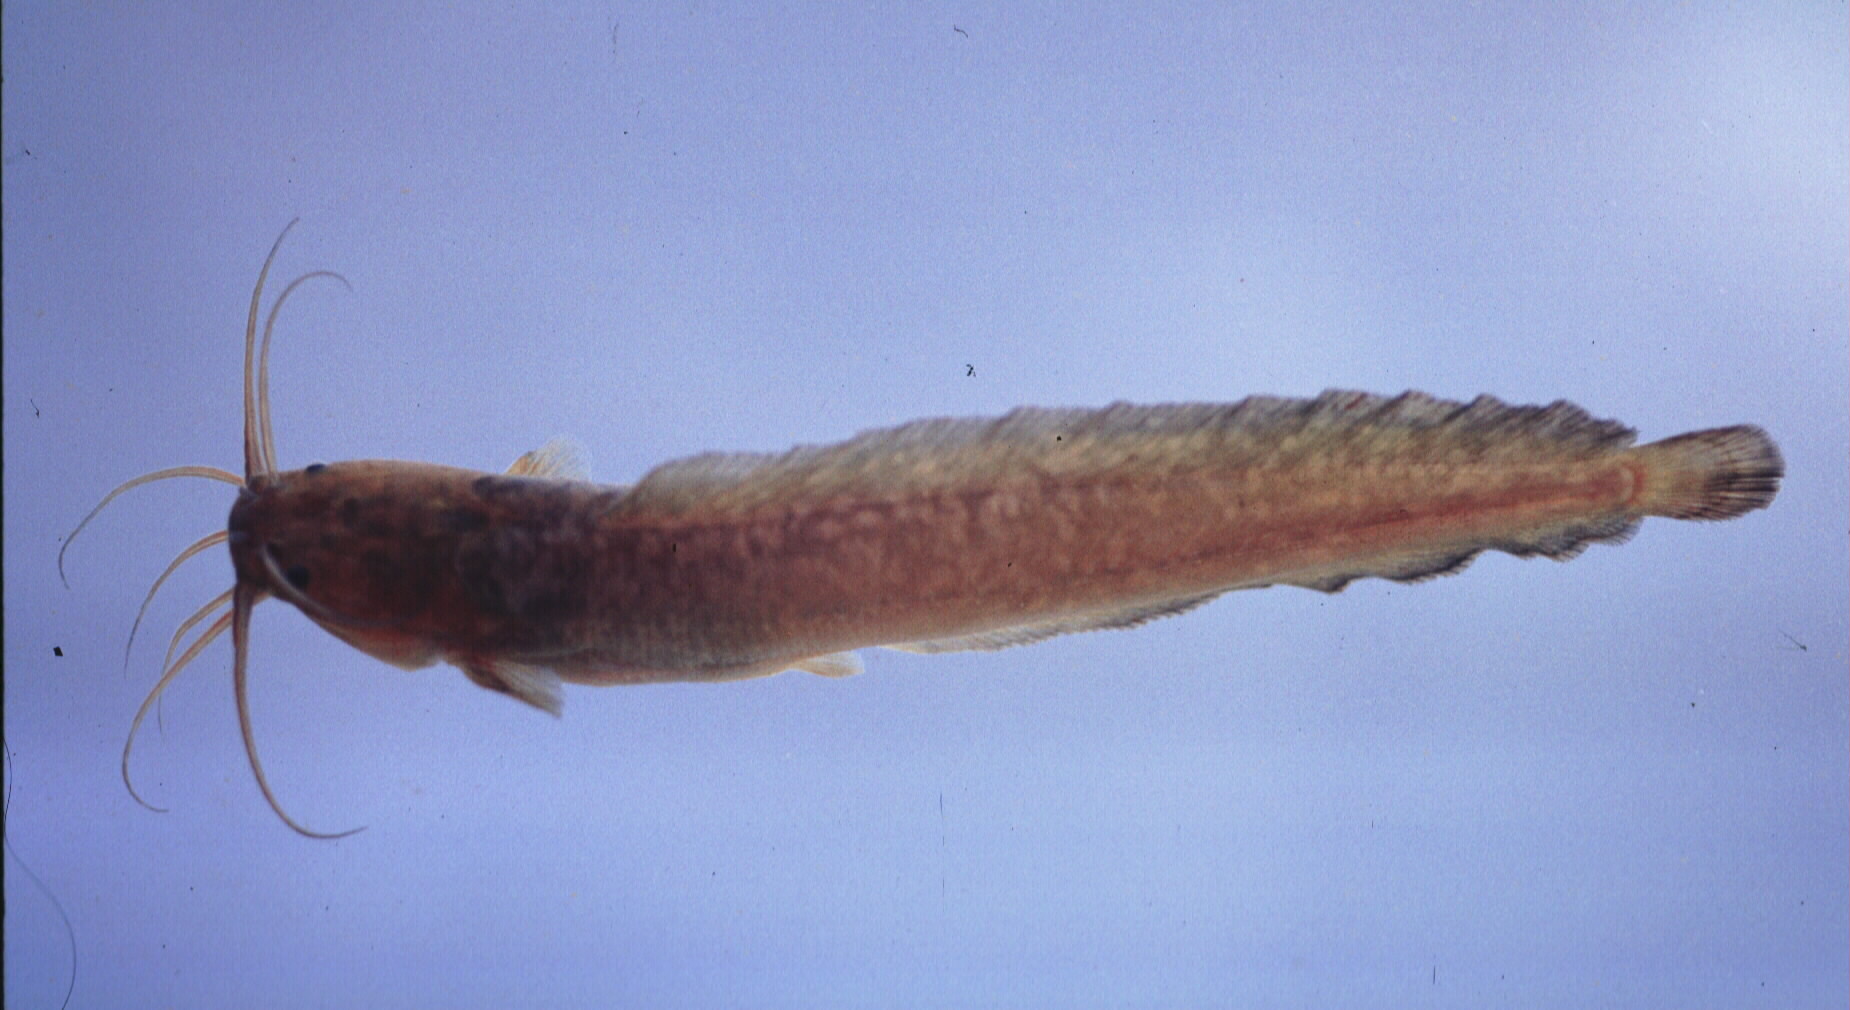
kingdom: Animalia
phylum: Chordata
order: Siluriformes
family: Clariidae
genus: Clarias
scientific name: Clarias theodorae
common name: Snake catfish
